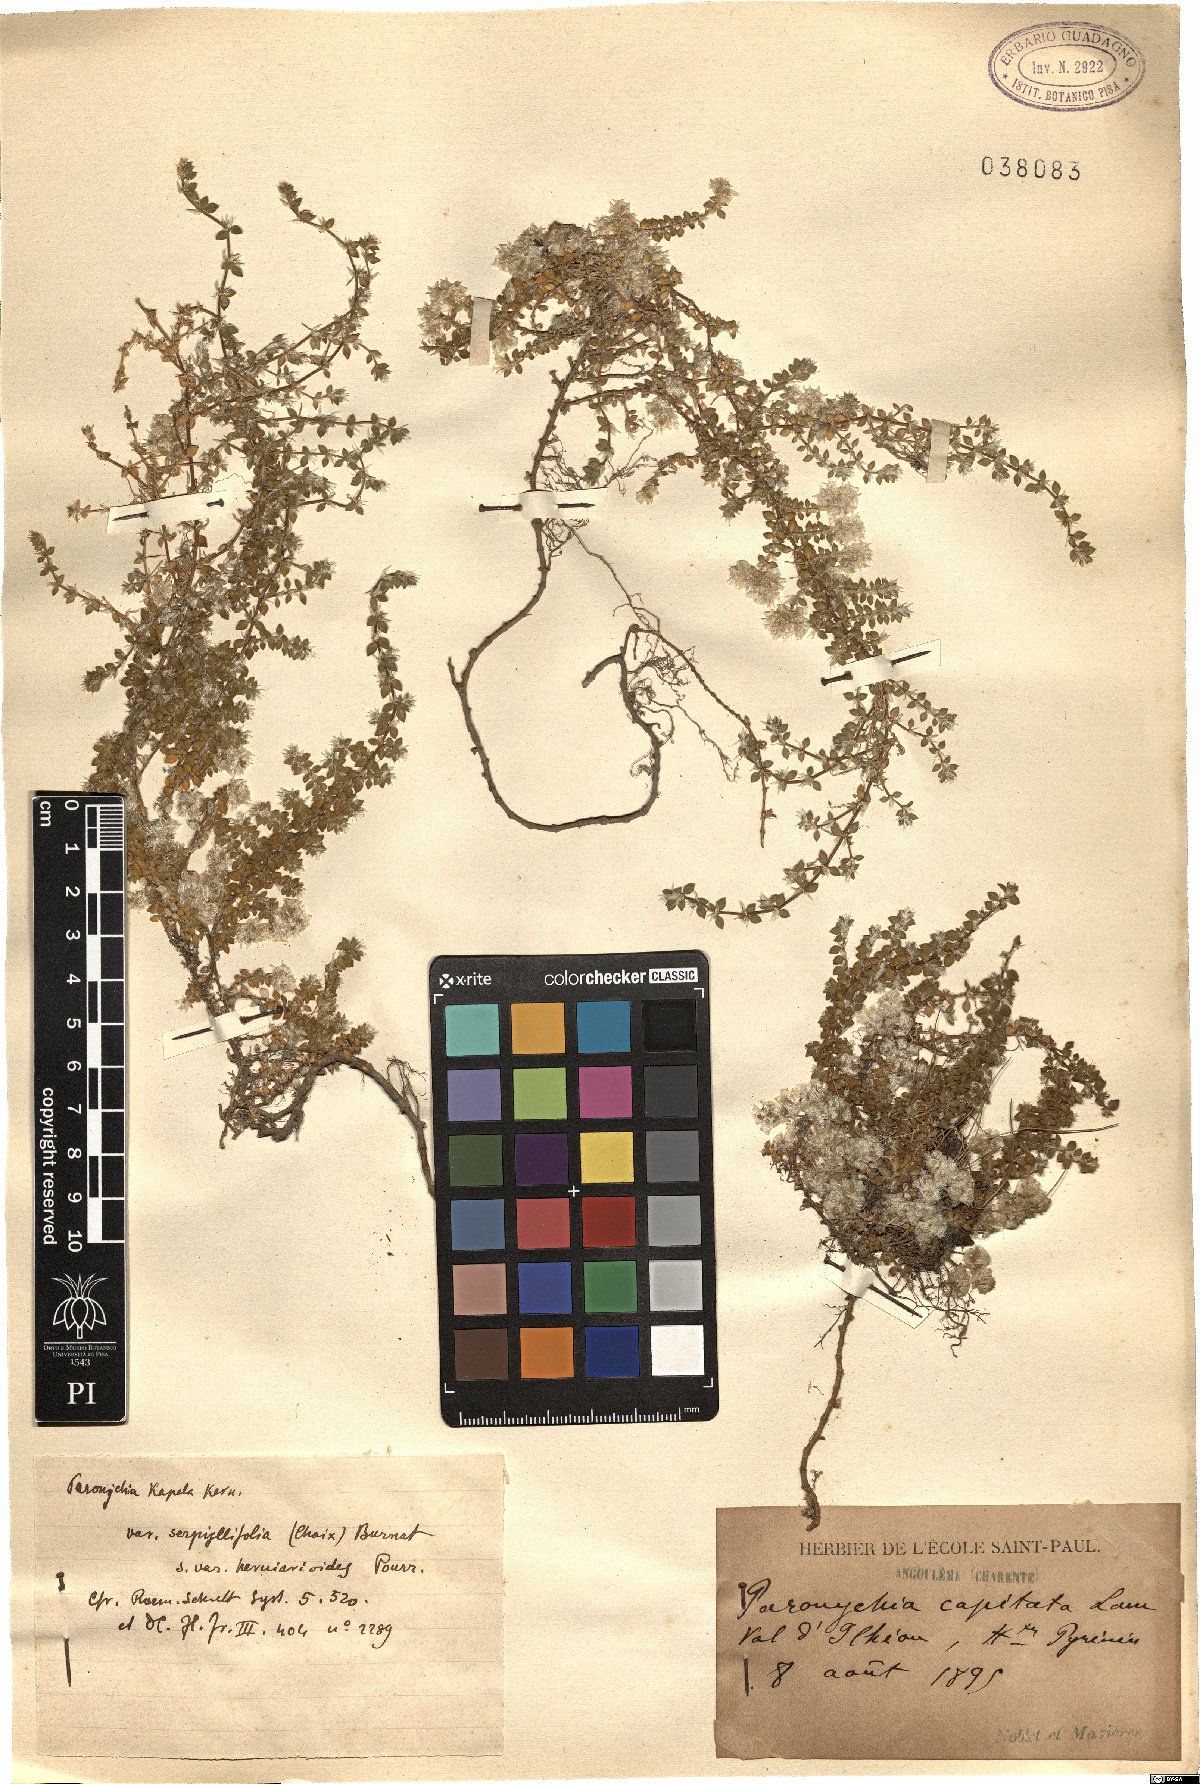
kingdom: Plantae
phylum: Tracheophyta
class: Magnoliopsida
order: Caryophyllales
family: Caryophyllaceae
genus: Paronychia
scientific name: Paronychia kapela
